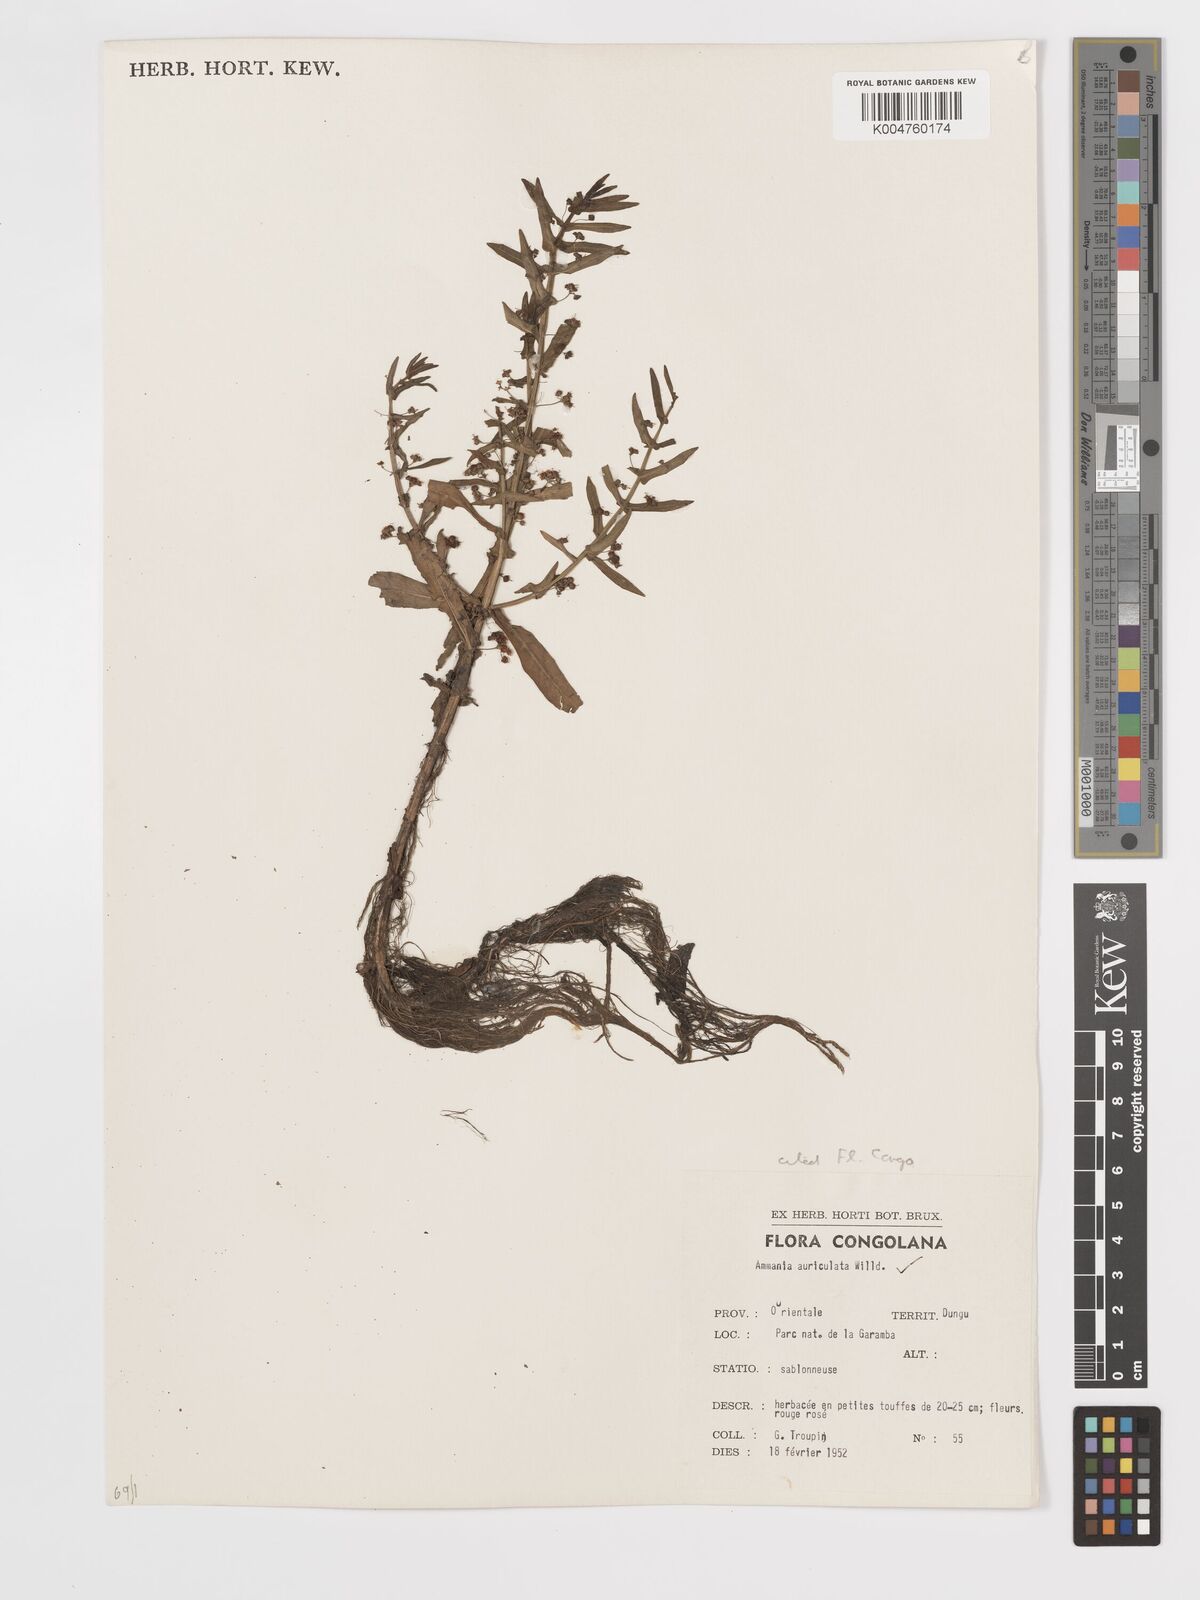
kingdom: Plantae
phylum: Tracheophyta
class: Magnoliopsida
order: Myrtales
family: Lythraceae
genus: Ammannia
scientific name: Ammannia auriculata
